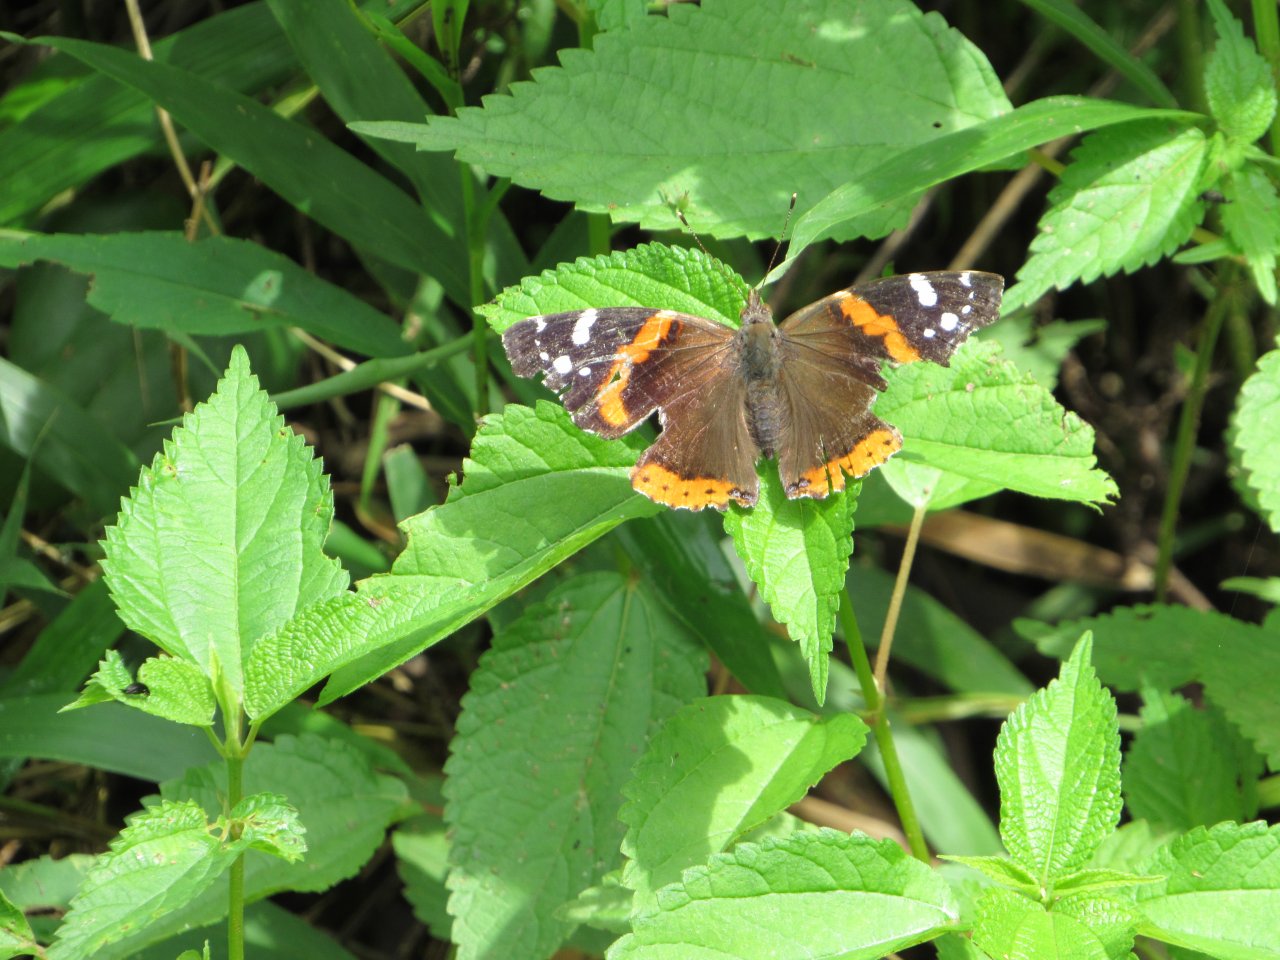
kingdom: Animalia
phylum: Arthropoda
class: Insecta
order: Lepidoptera
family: Nymphalidae
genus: Vanessa
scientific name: Vanessa atalanta
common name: Red Admiral
